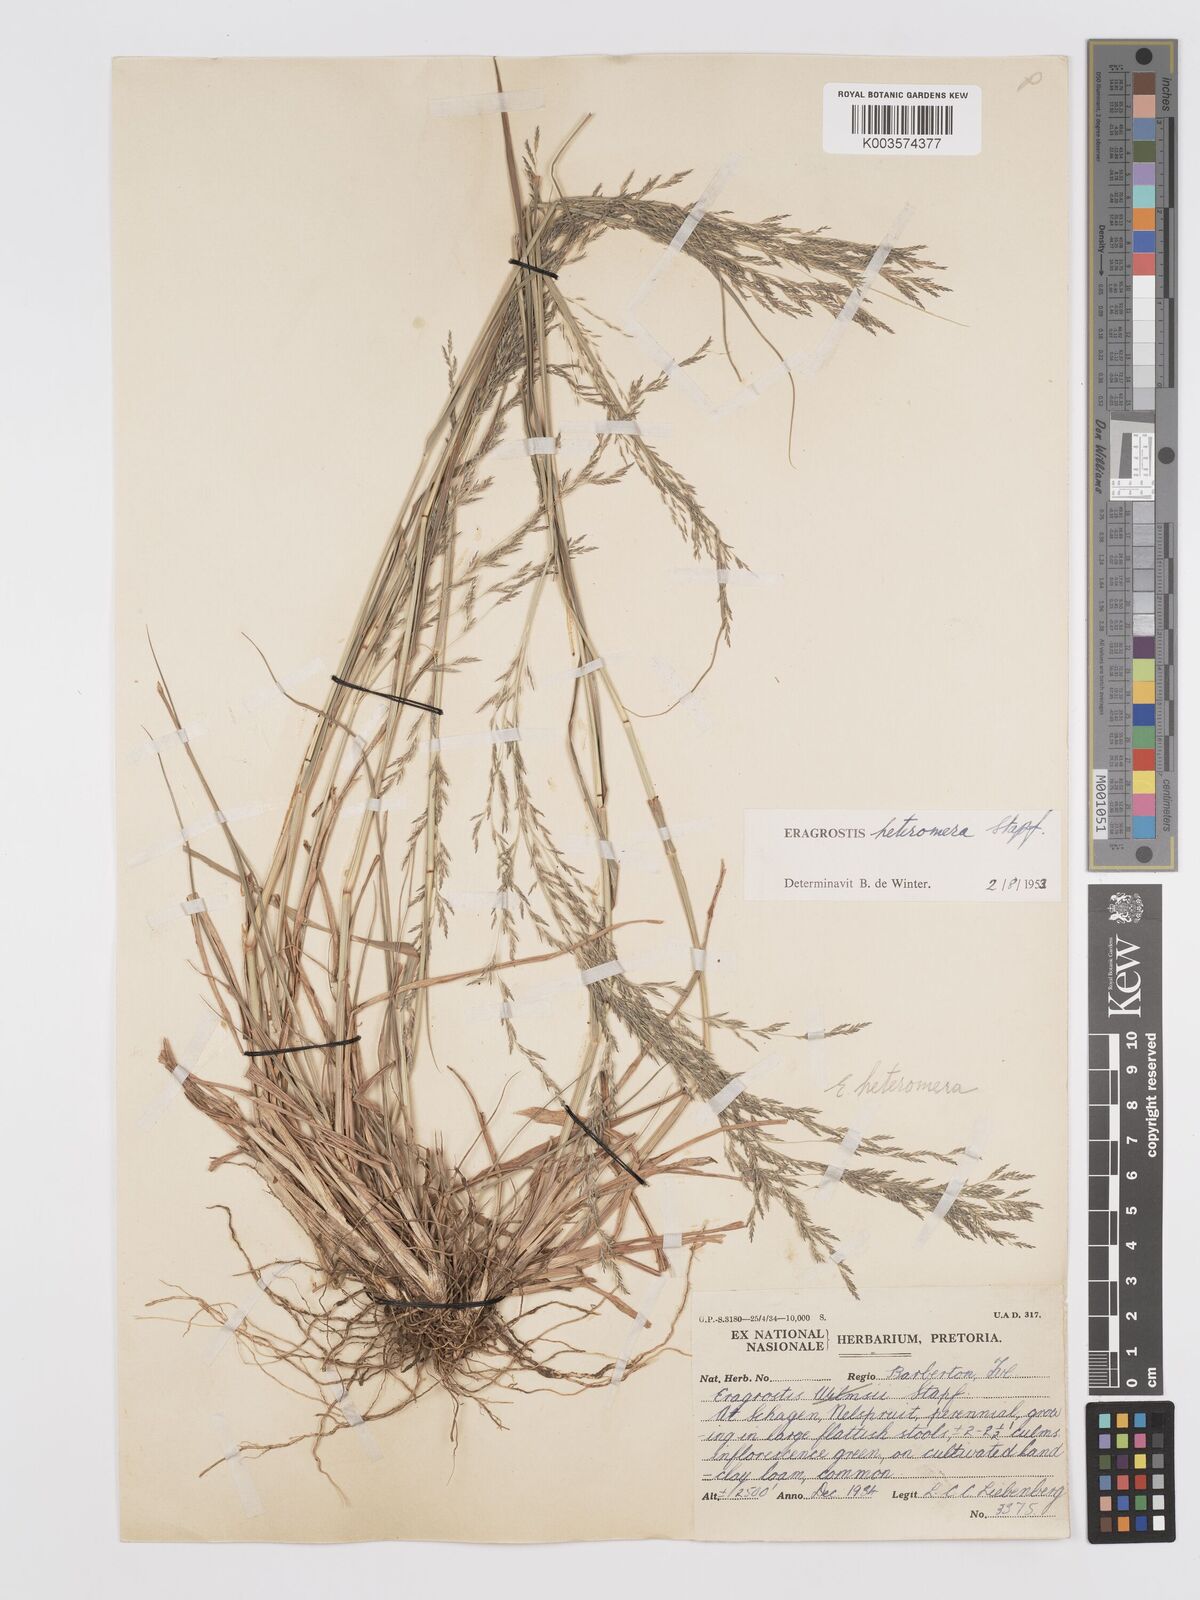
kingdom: Plantae
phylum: Tracheophyta
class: Liliopsida
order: Poales
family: Poaceae
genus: Eragrostis
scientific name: Eragrostis heteromera
